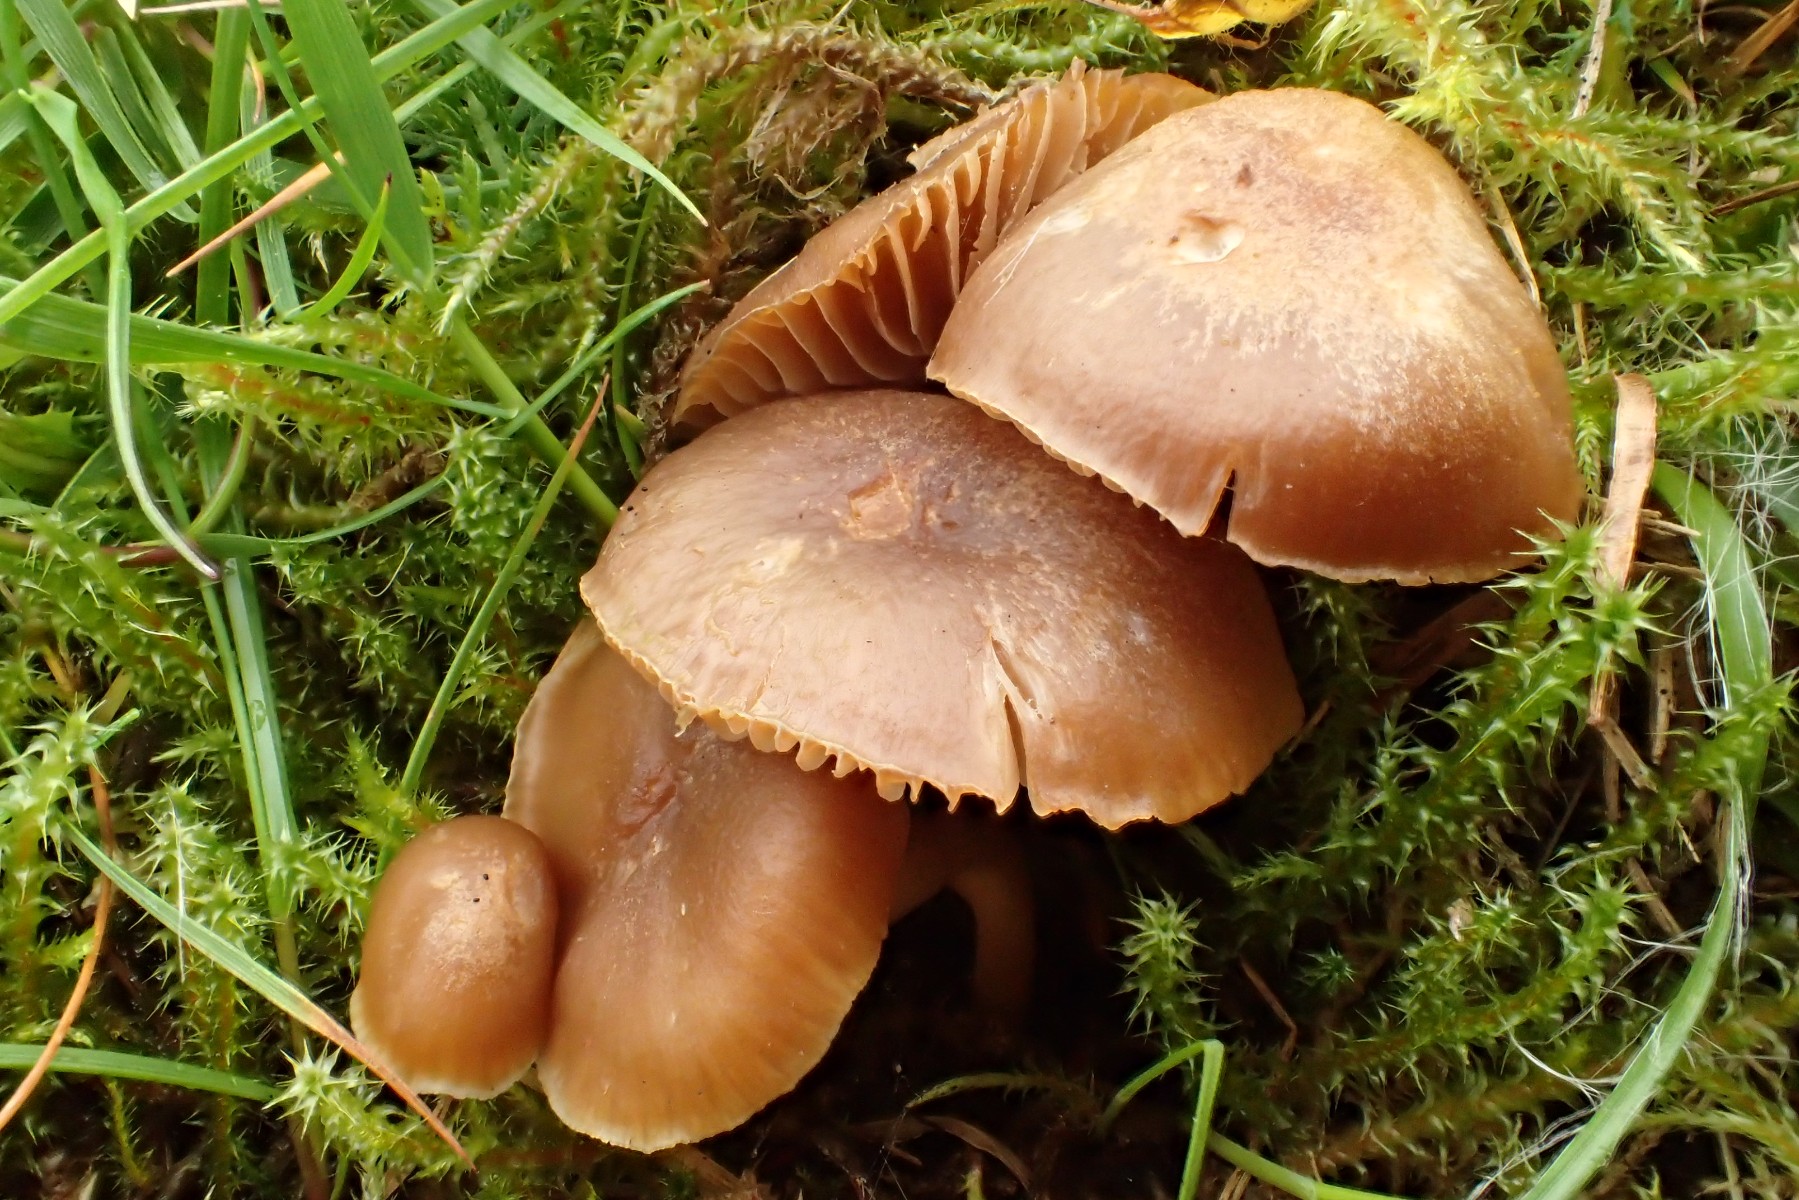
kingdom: Fungi
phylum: Basidiomycota
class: Agaricomycetes
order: Agaricales
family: Clavariaceae
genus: Camarophyllopsis
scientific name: Camarophyllopsis schulzeri
